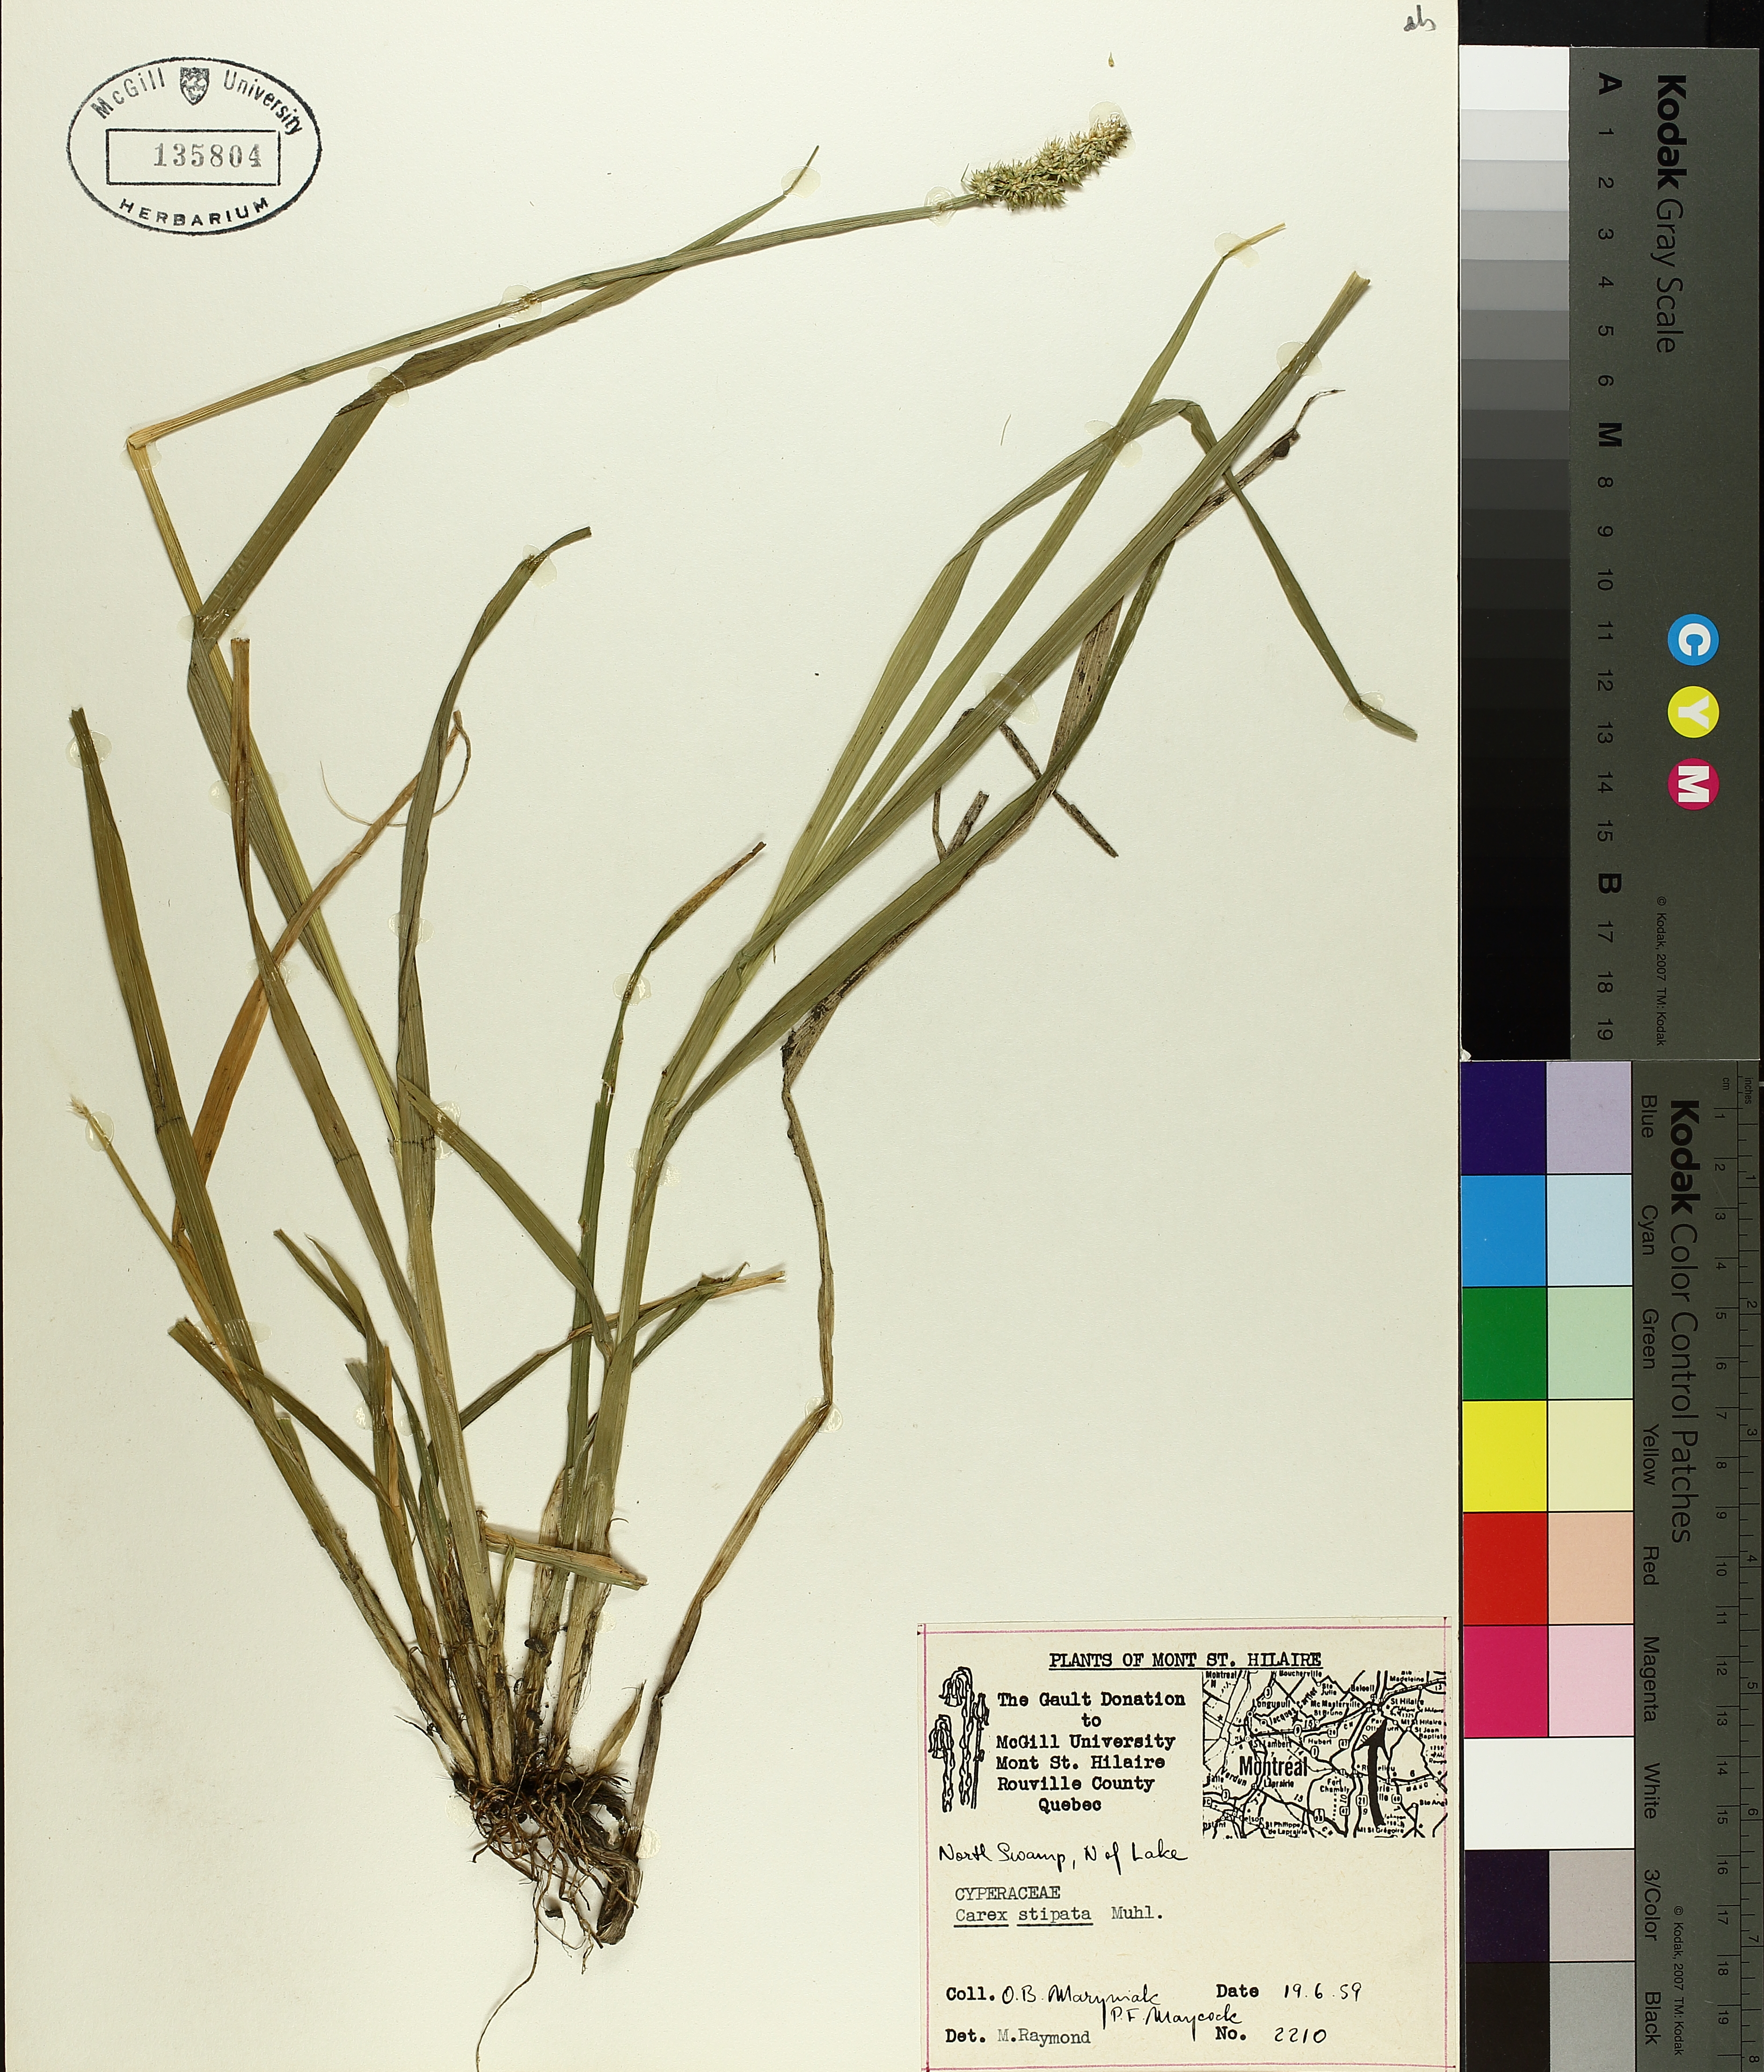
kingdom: Plantae
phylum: Tracheophyta
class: Liliopsida
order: Poales
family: Cyperaceae
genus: Carex
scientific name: Carex stipata
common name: Awl-fruited sedge
